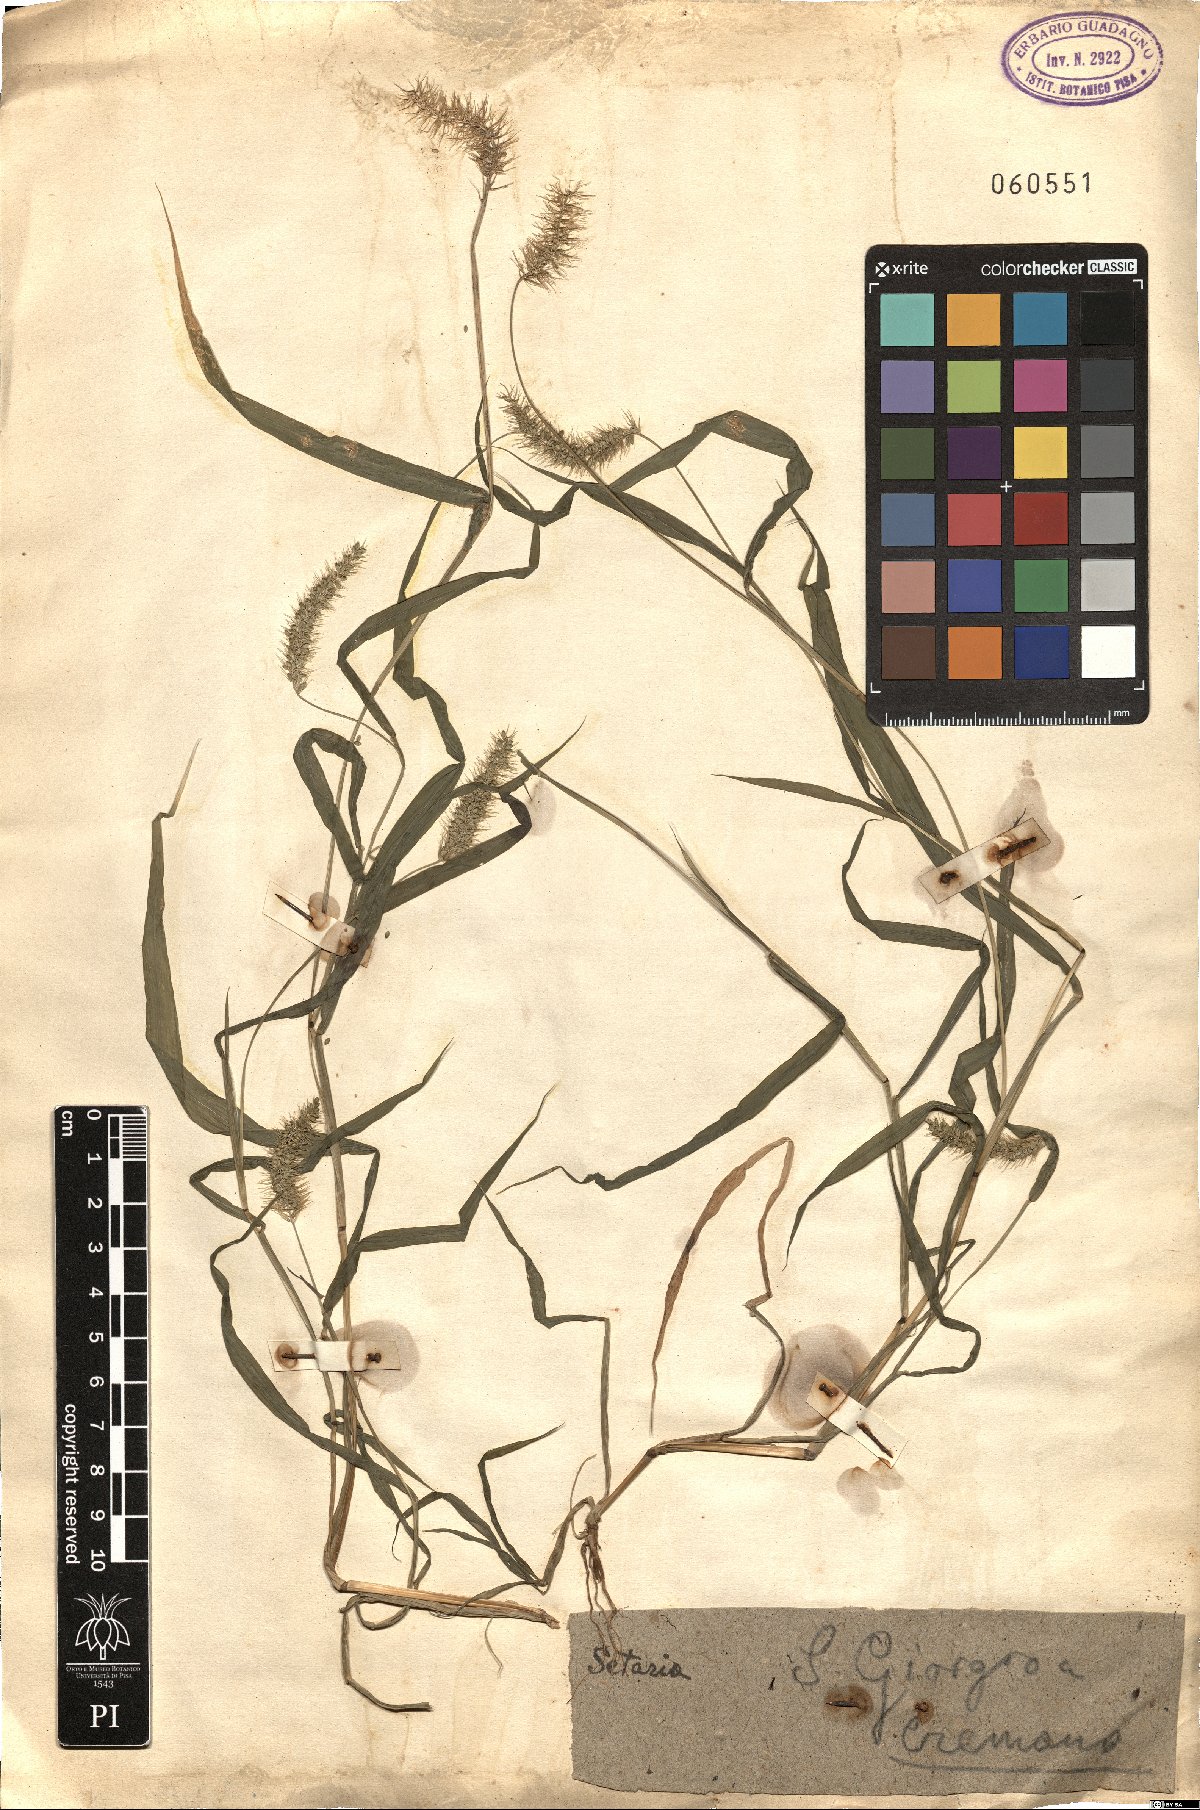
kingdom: Plantae
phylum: Tracheophyta
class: Liliopsida
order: Poales
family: Poaceae
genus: Setaria
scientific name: Setaria
